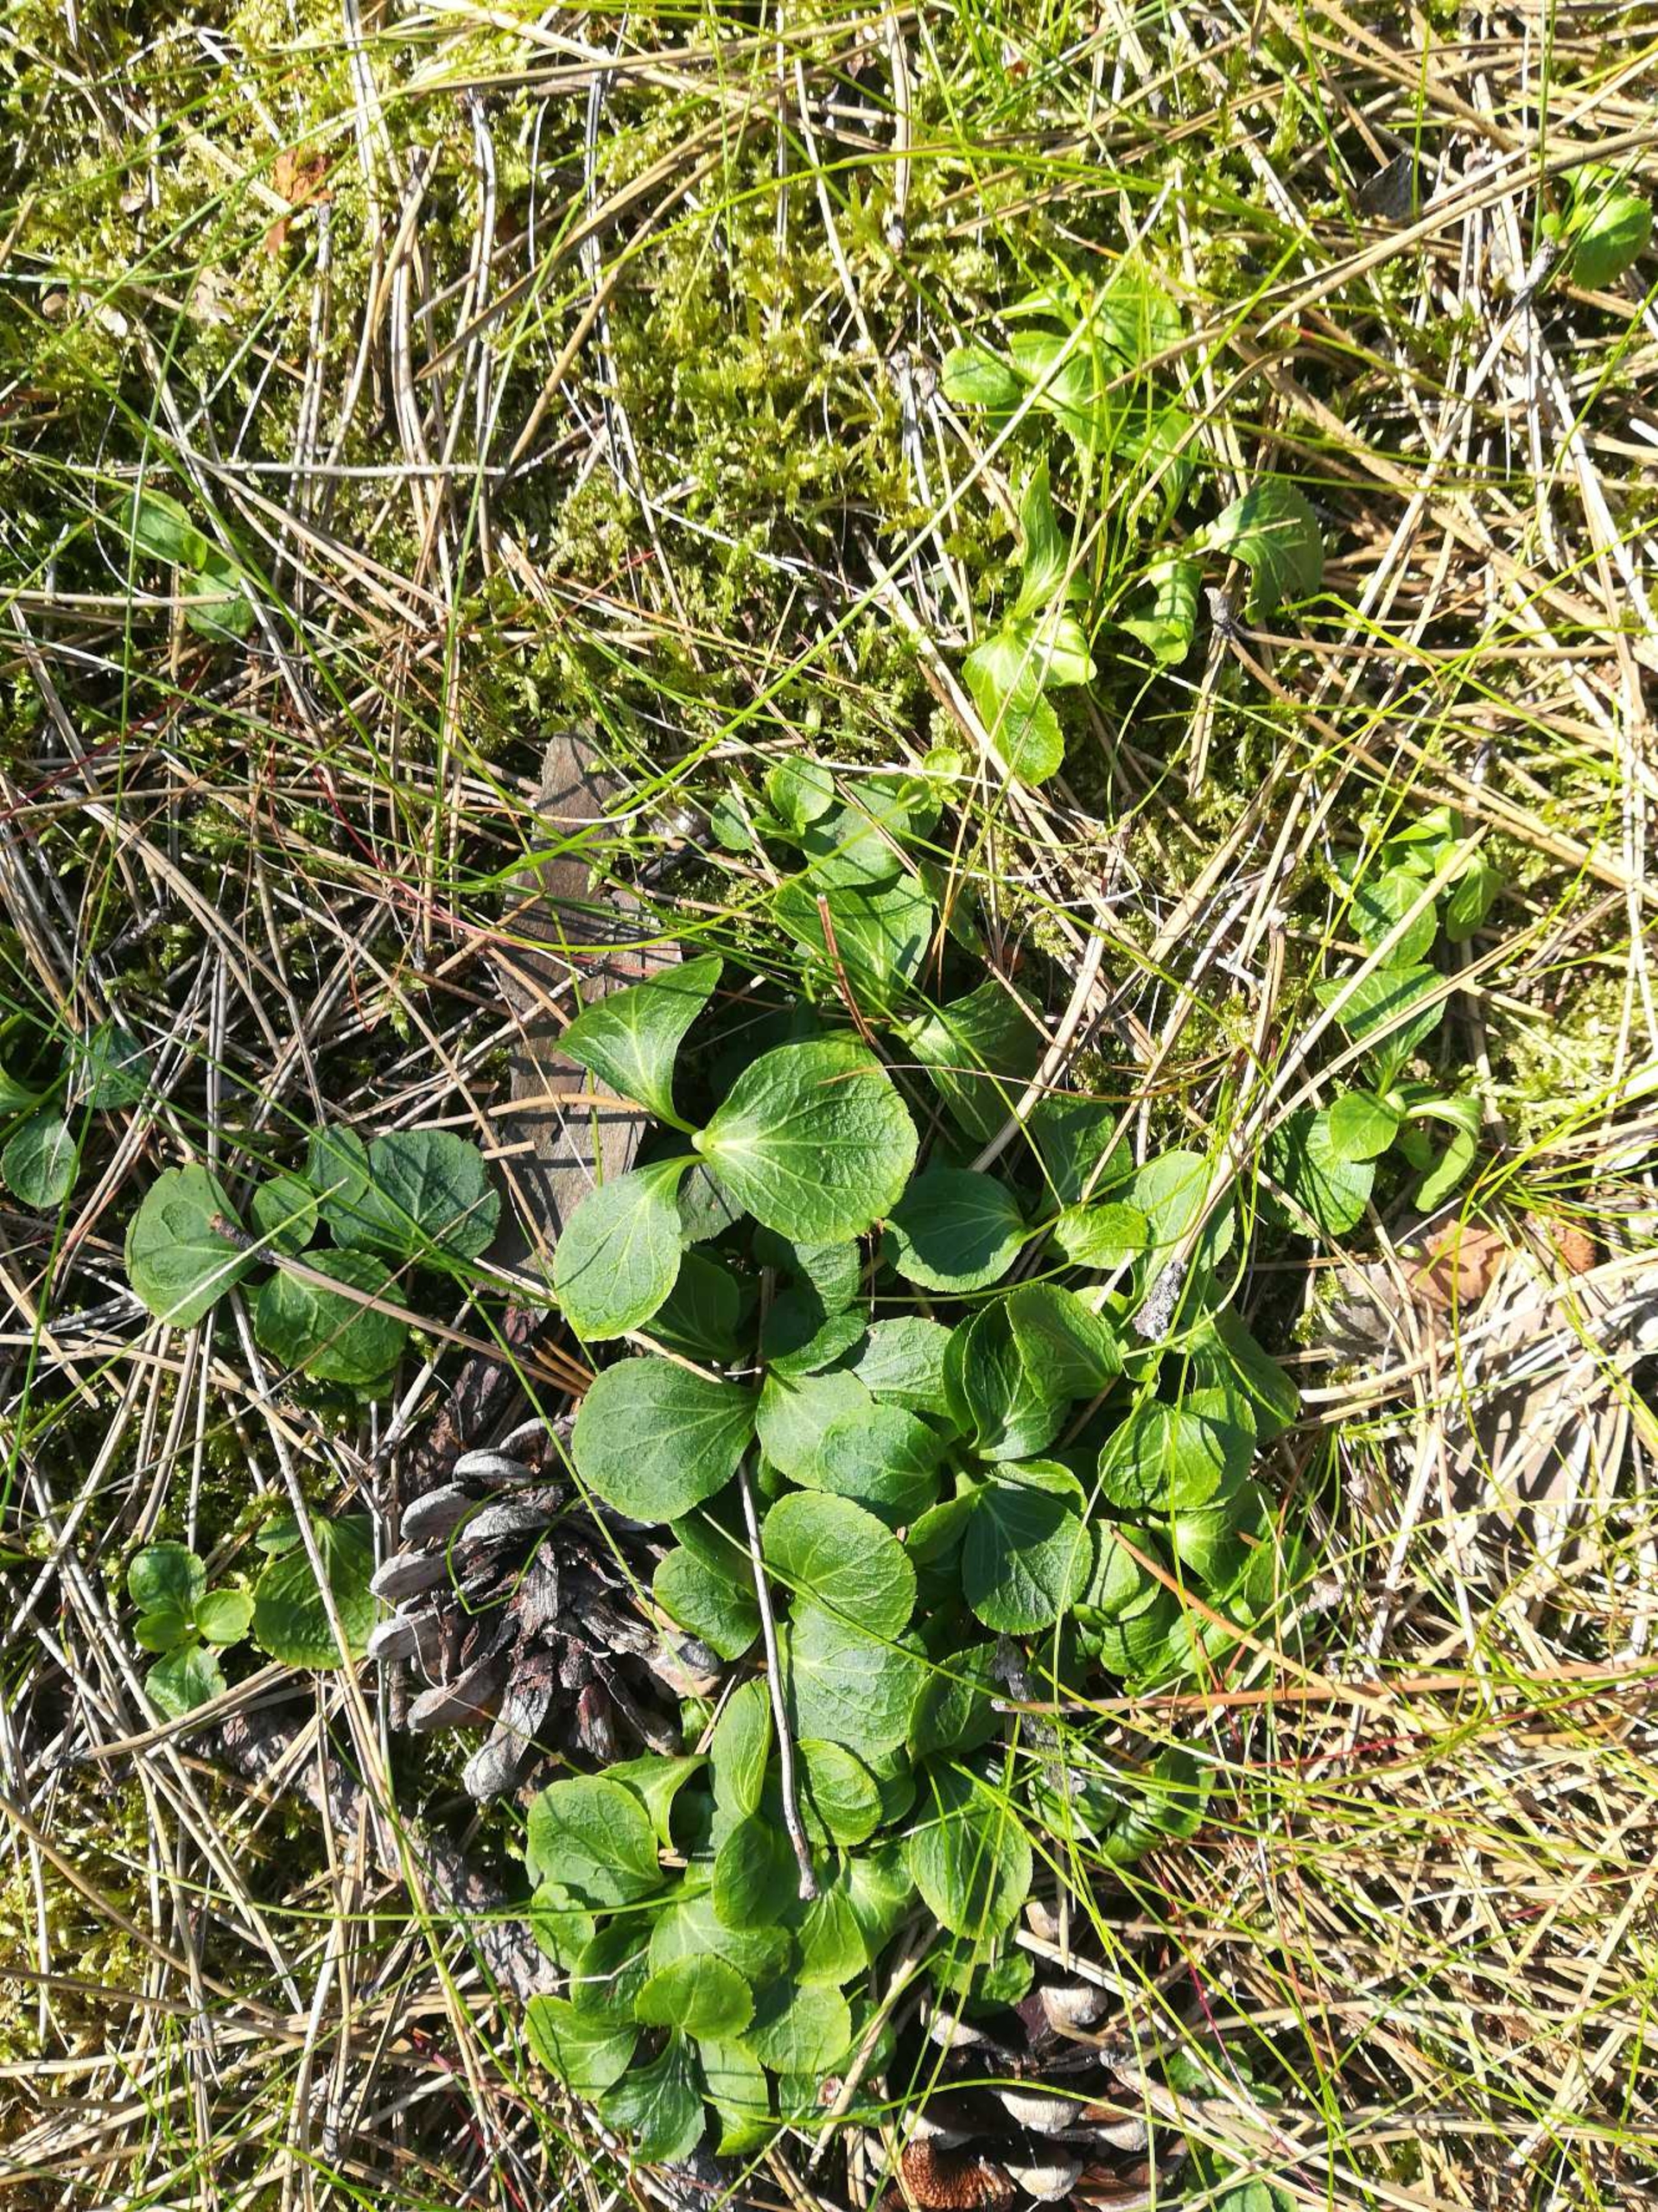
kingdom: Plantae
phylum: Tracheophyta
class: Magnoliopsida
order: Ericales
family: Ericaceae
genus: Moneses
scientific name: Moneses uniflora
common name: Enblomstret vintergrøn
